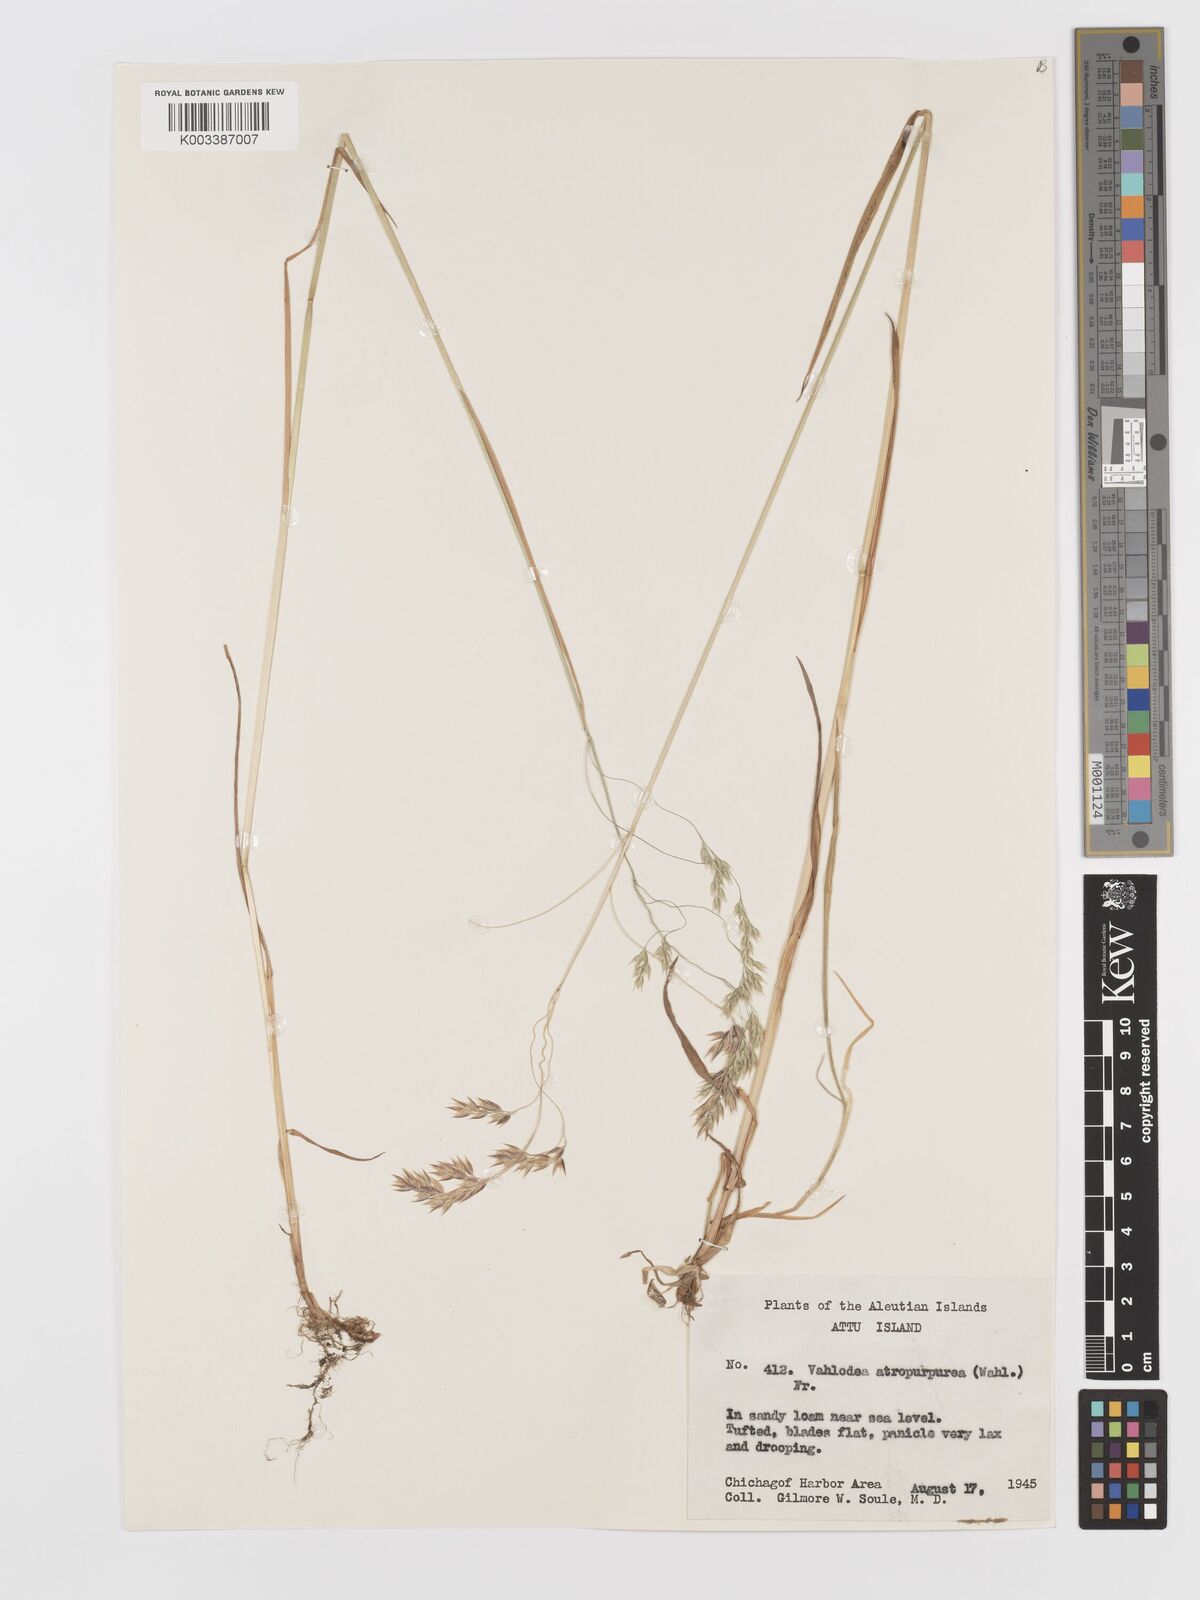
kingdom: Plantae
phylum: Tracheophyta
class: Liliopsida
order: Poales
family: Poaceae
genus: Vahlodea
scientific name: Vahlodea atropurpurea
